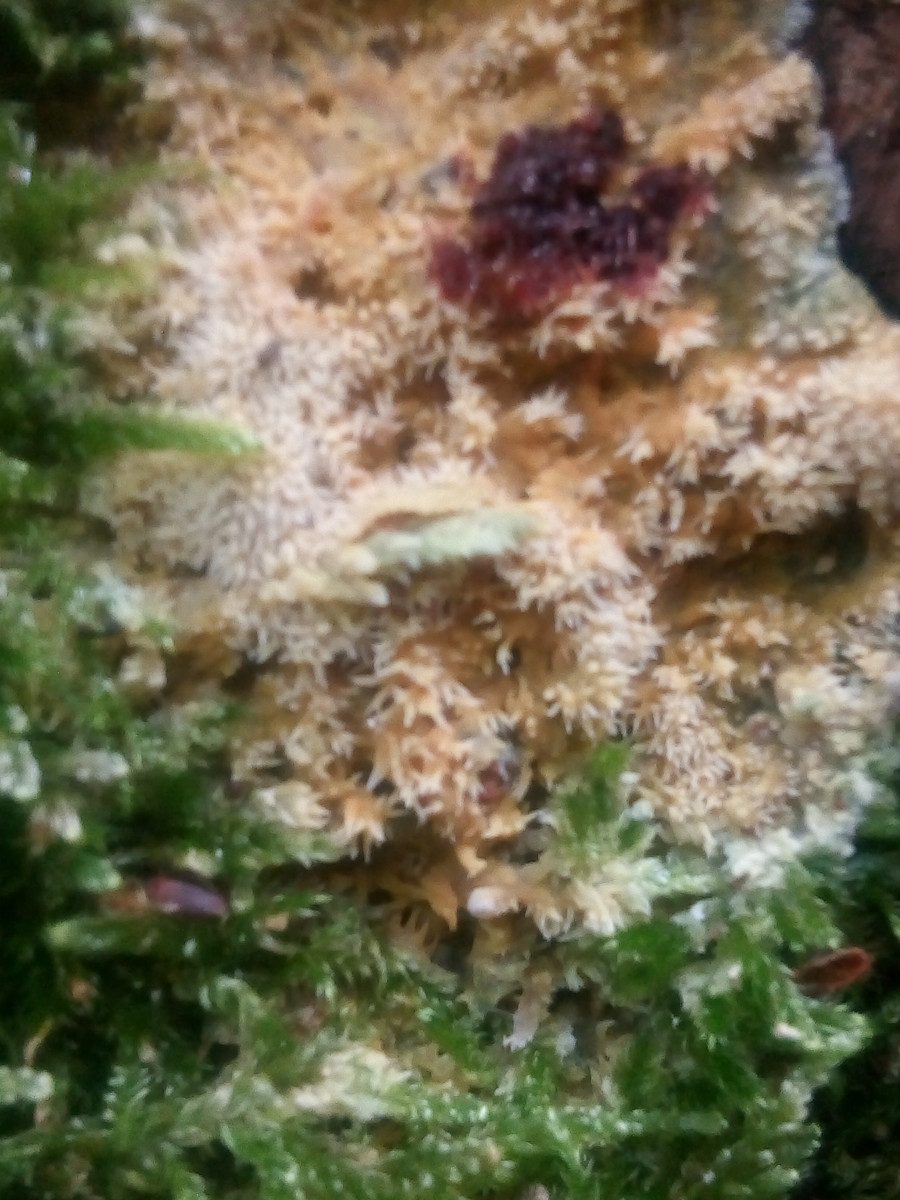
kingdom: Fungi
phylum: Basidiomycota
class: Agaricomycetes
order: Polyporales
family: Meruliaceae
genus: Mycoacia
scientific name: Mycoacia uda
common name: citrongul vokspig
